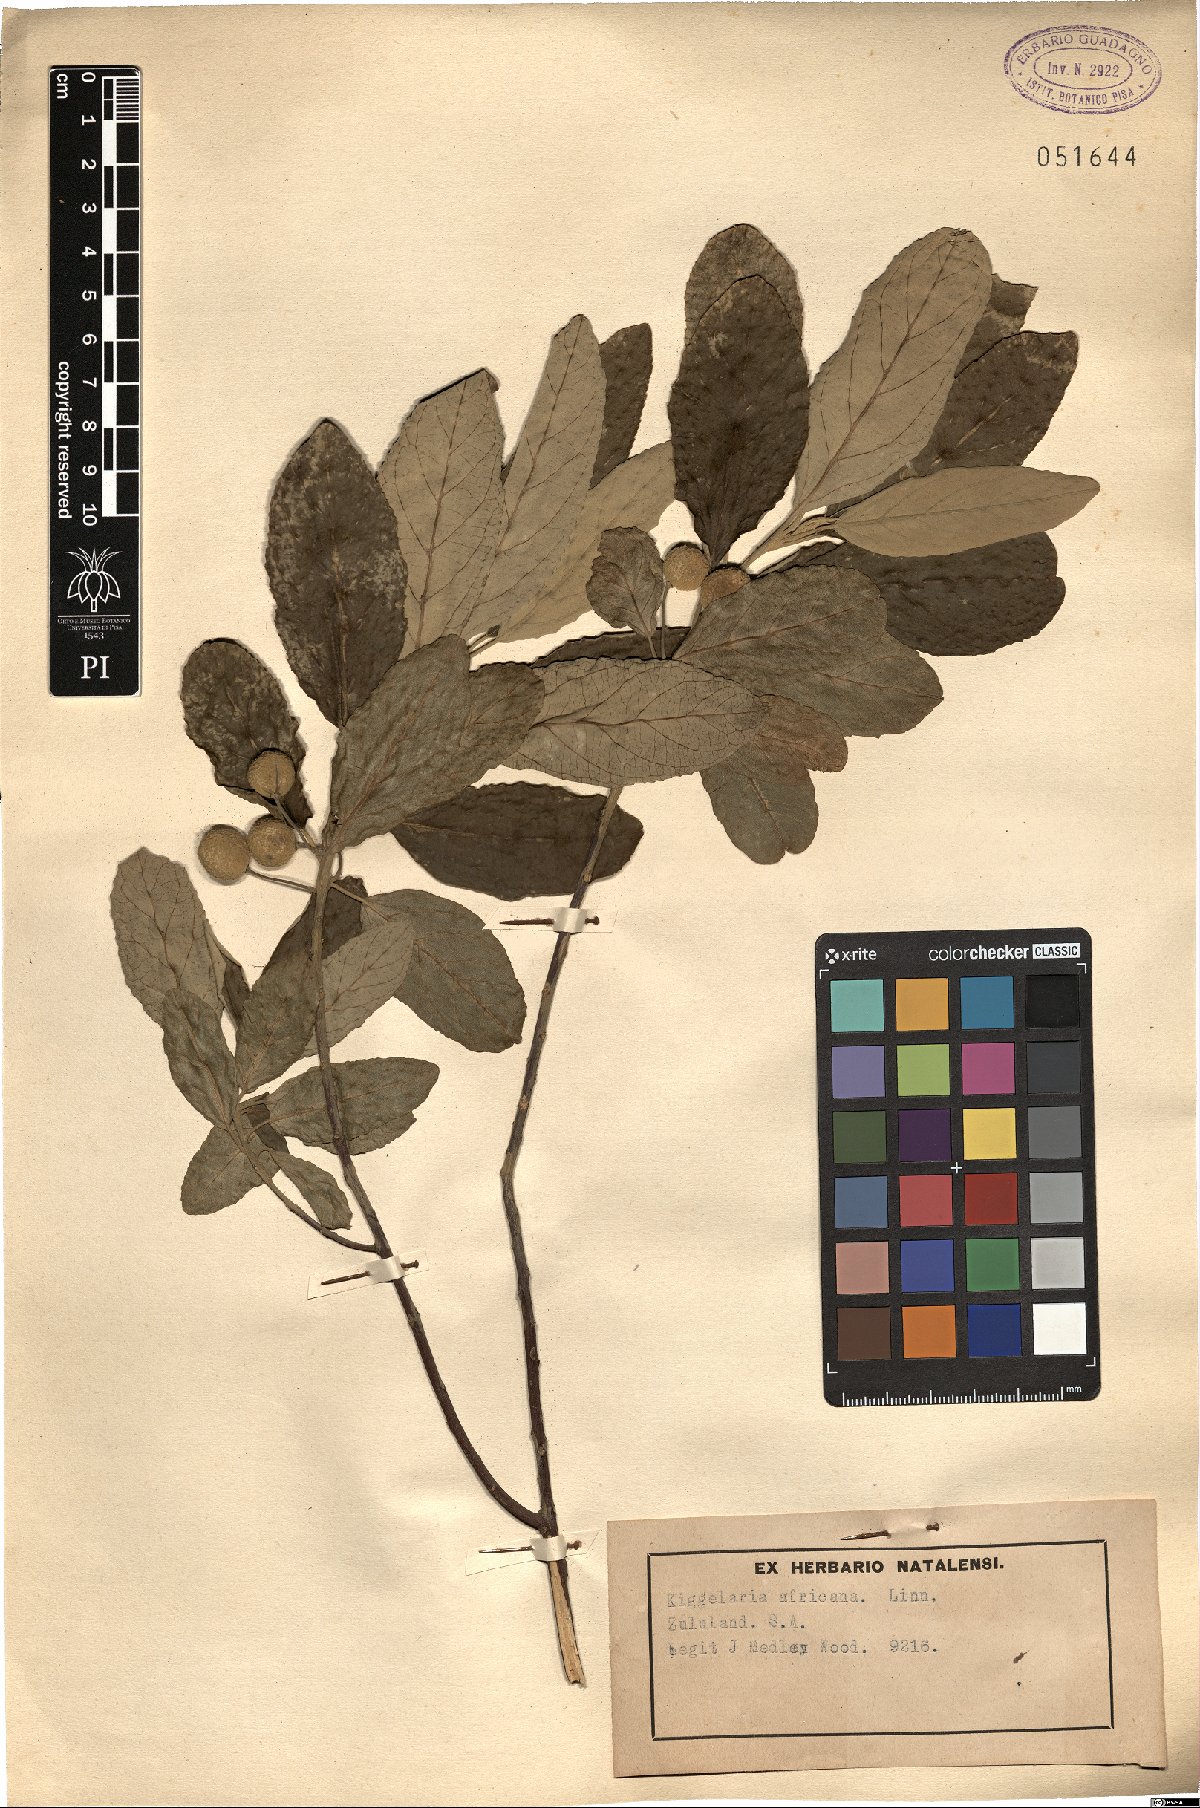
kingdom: Plantae
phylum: Tracheophyta
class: Magnoliopsida
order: Malpighiales
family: Achariaceae
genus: Kiggelaria
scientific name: Kiggelaria africana
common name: Wild peach
